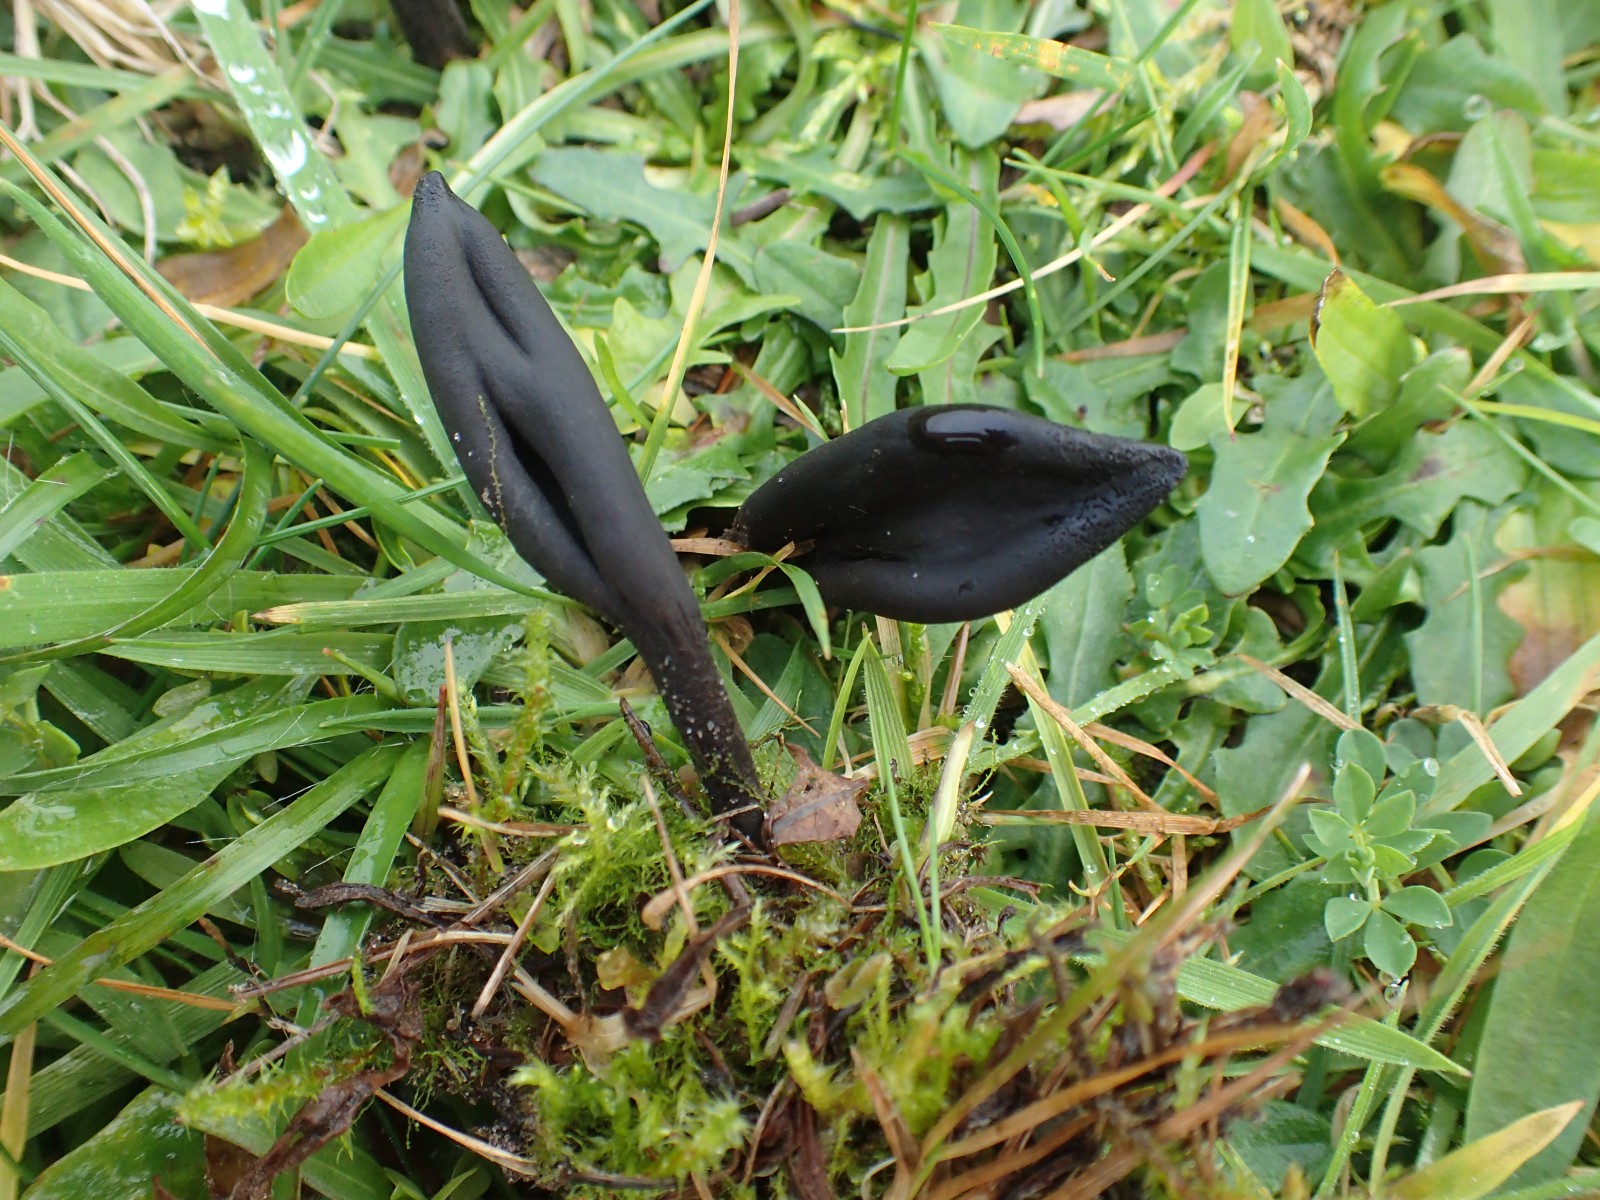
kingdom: Fungi
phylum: Ascomycota
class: Geoglossomycetes
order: Geoglossales
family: Geoglossaceae
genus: Geoglossum
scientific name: Geoglossum
